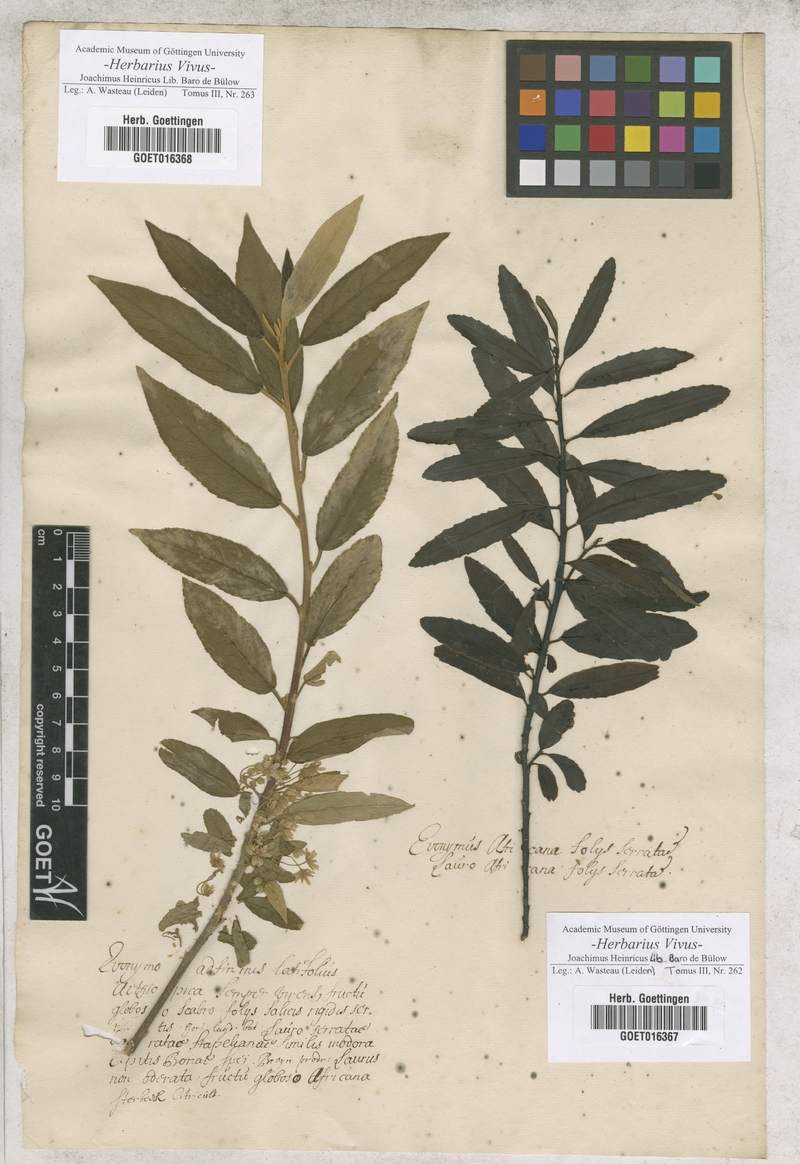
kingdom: Plantae
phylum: Tracheophyta
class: Magnoliopsida
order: Celastrales
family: Celastraceae
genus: Euonymus
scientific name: Euonymus
